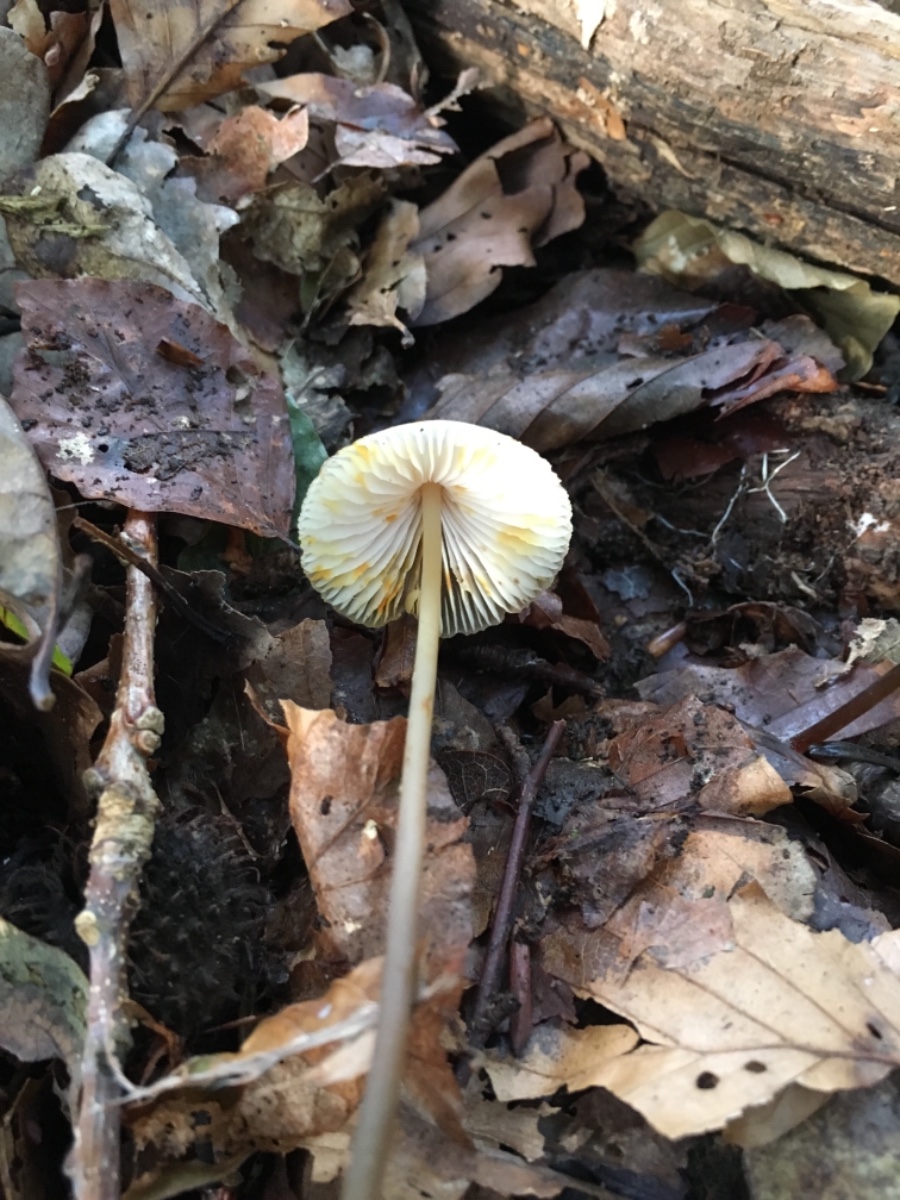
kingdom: Fungi
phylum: Basidiomycota
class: Agaricomycetes
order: Agaricales
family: Mycenaceae
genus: Mycena
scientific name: Mycena crocata
